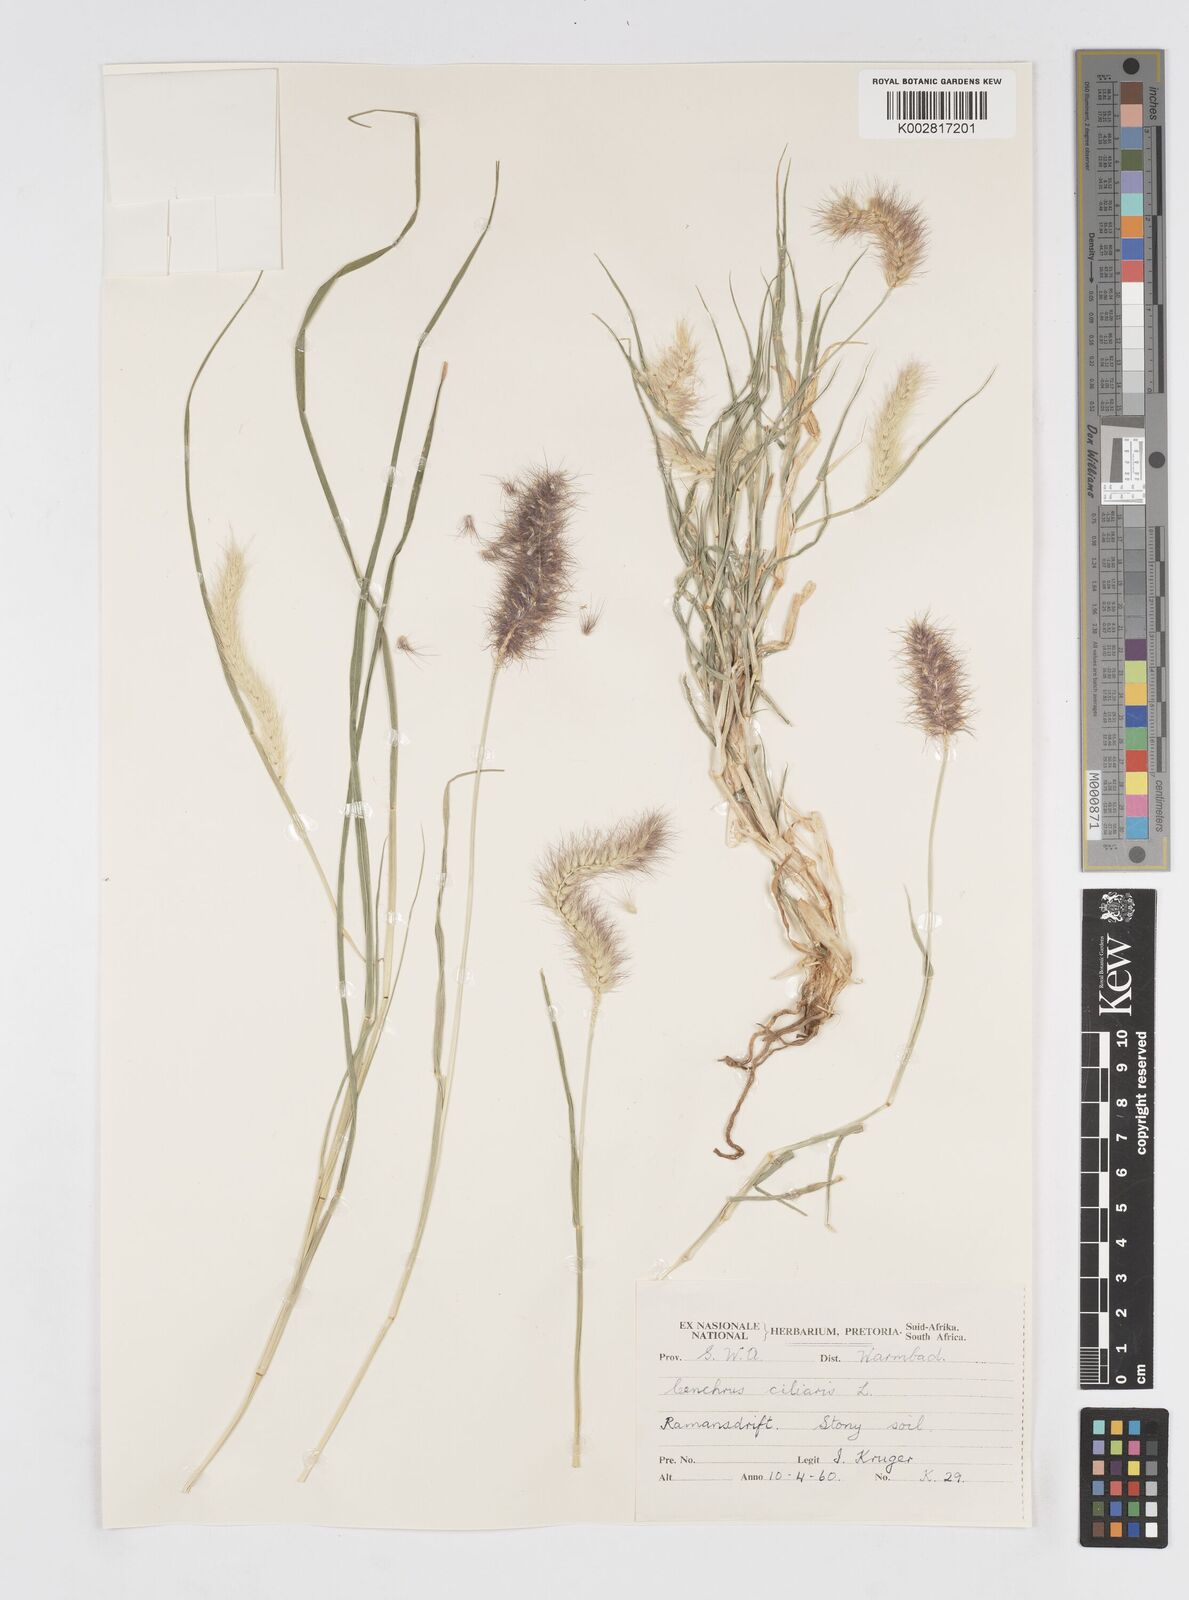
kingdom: Plantae
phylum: Tracheophyta
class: Liliopsida
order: Poales
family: Poaceae
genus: Cenchrus
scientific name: Cenchrus ciliaris
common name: Buffelgrass
